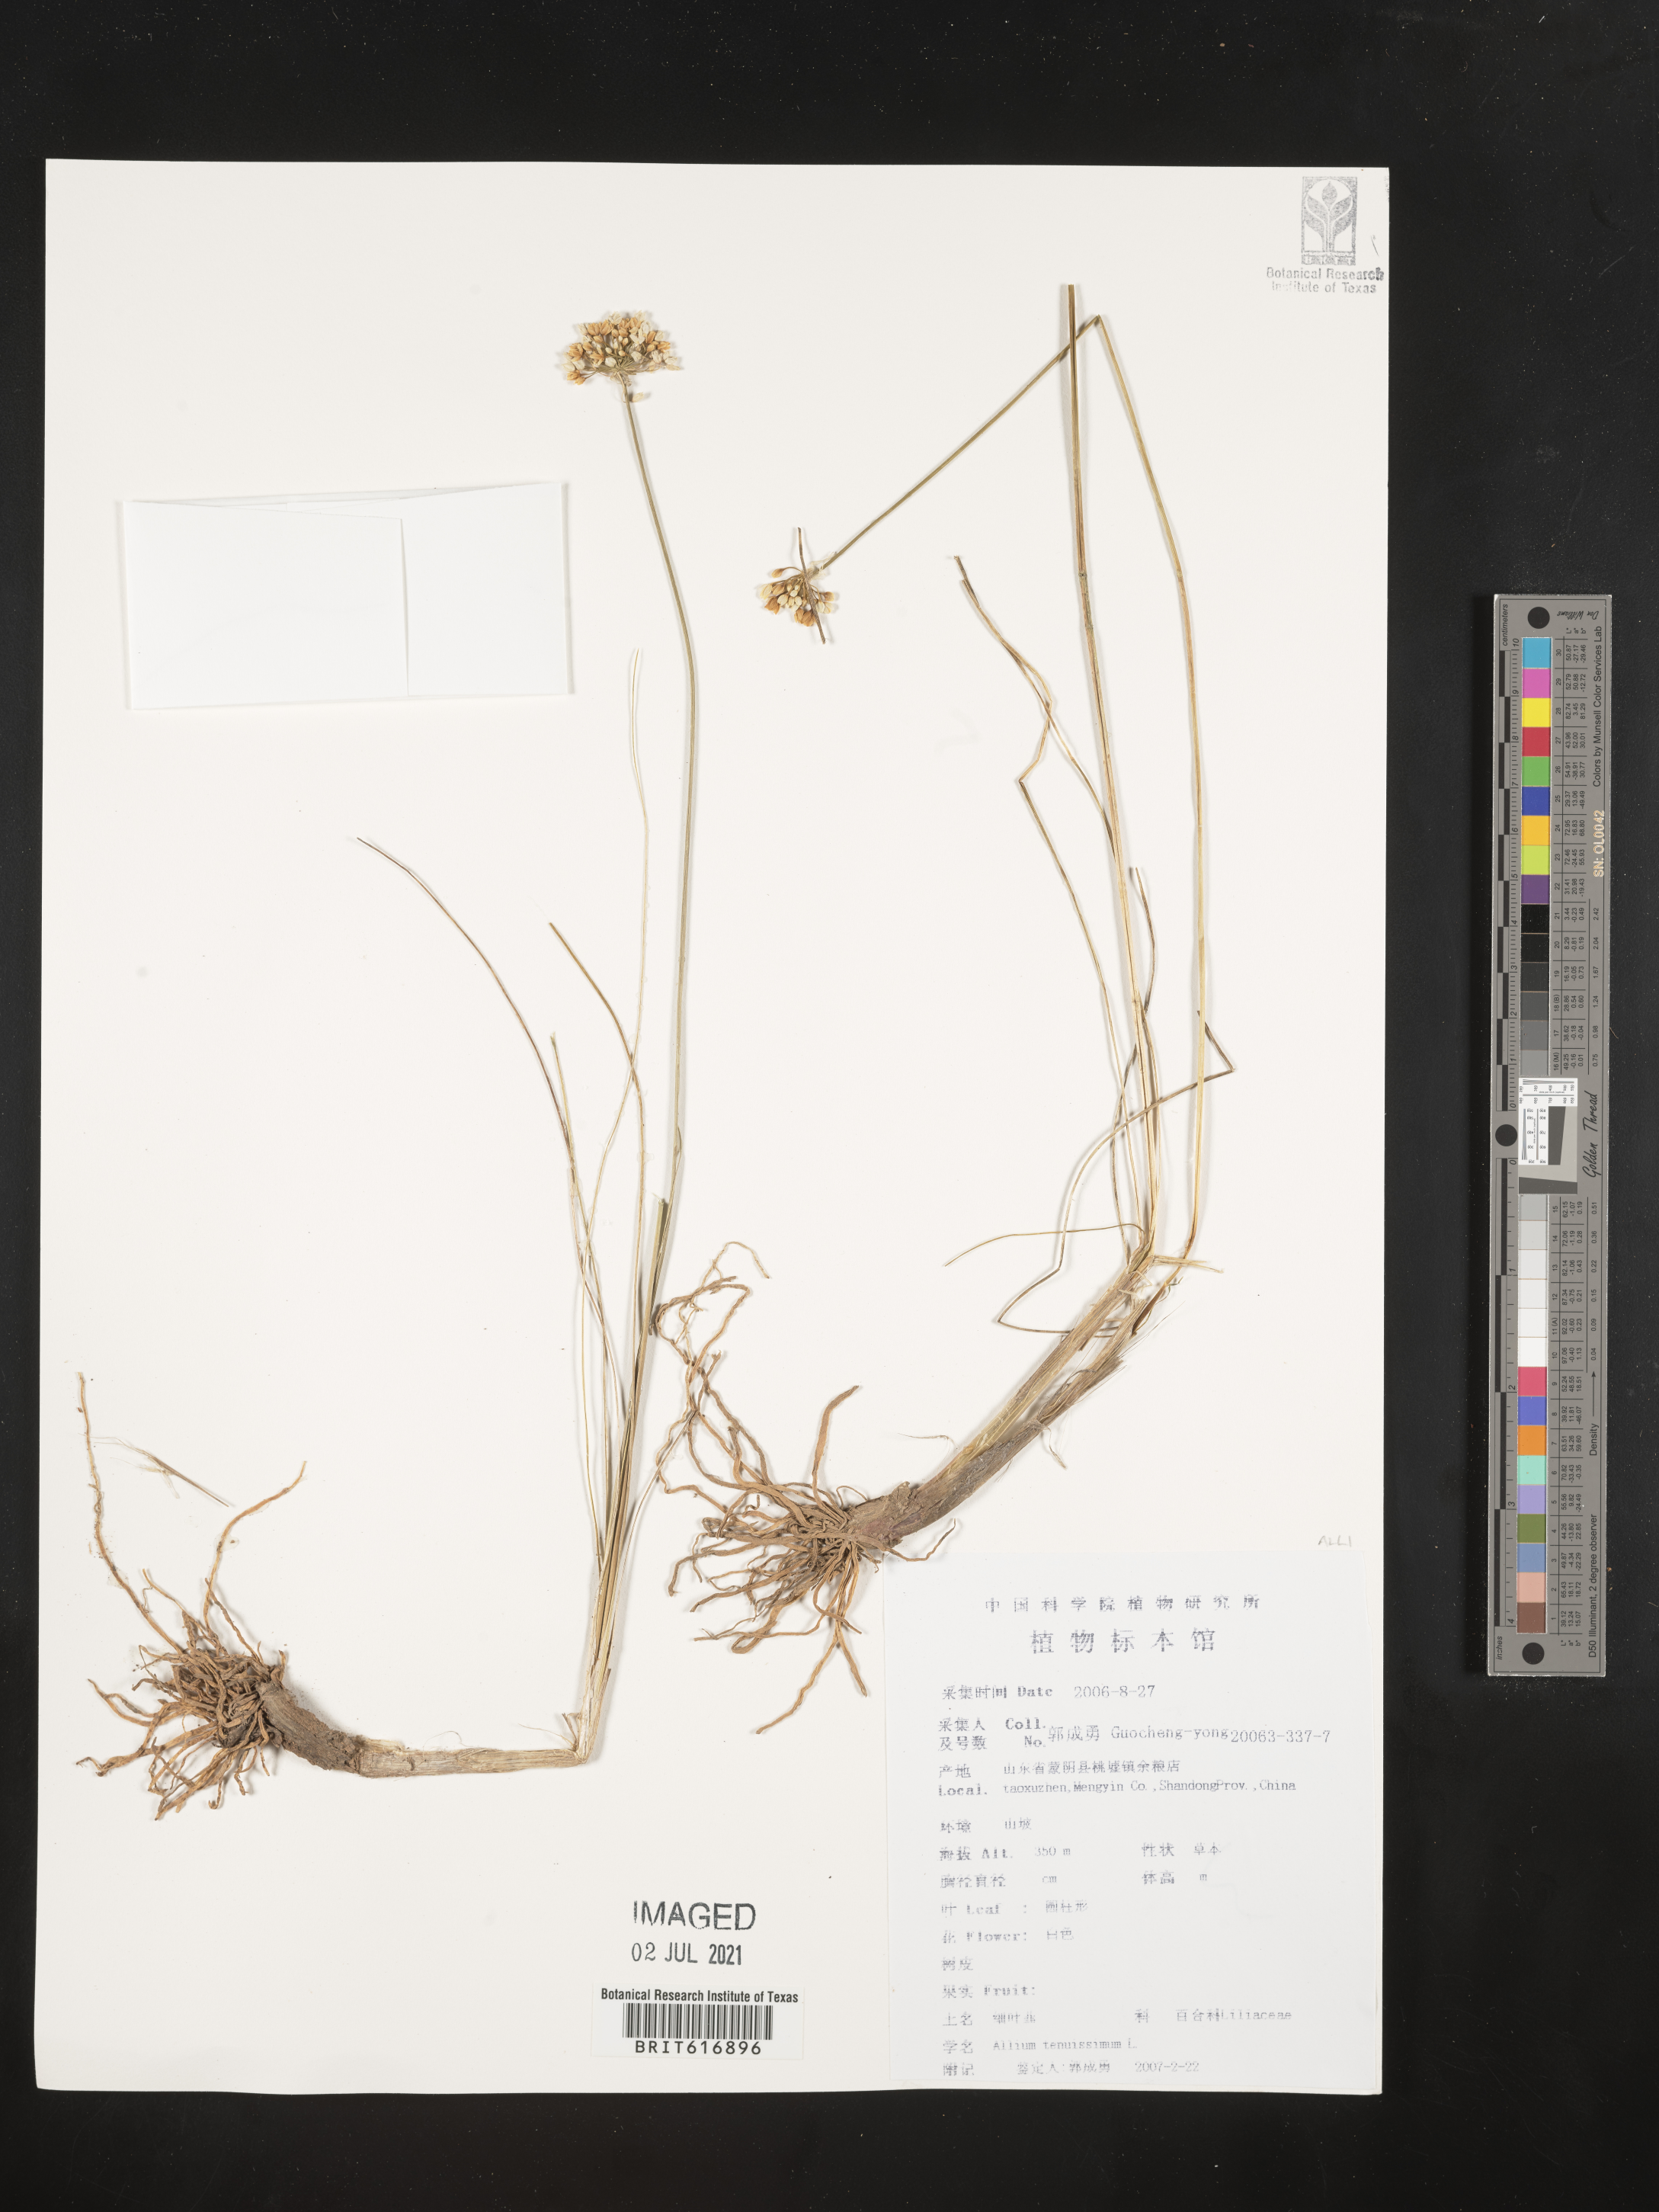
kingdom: Plantae
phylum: Tracheophyta
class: Liliopsida
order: Asparagales
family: Amaryllidaceae
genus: Allium
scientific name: Allium tenuissimum
